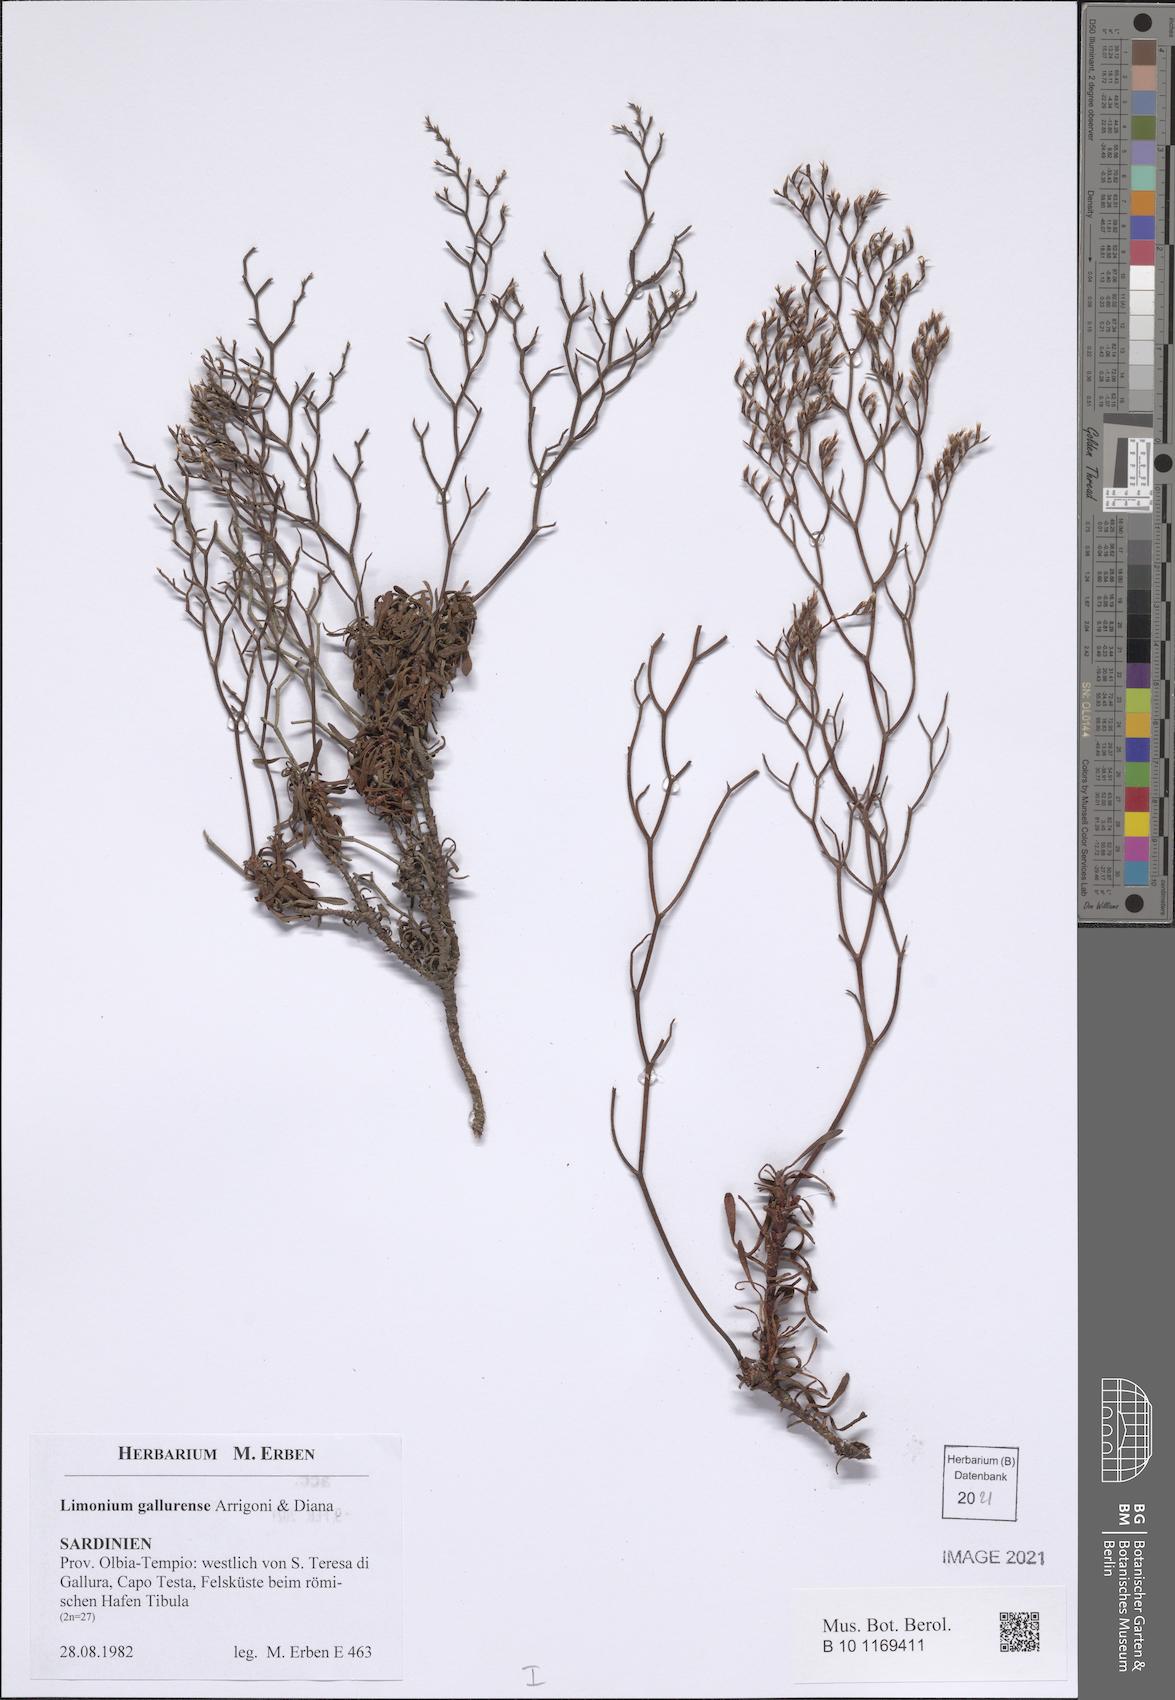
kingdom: Plantae
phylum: Tracheophyta
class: Magnoliopsida
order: Caryophyllales
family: Plumbaginaceae
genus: Limonium
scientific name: Limonium gallurense
